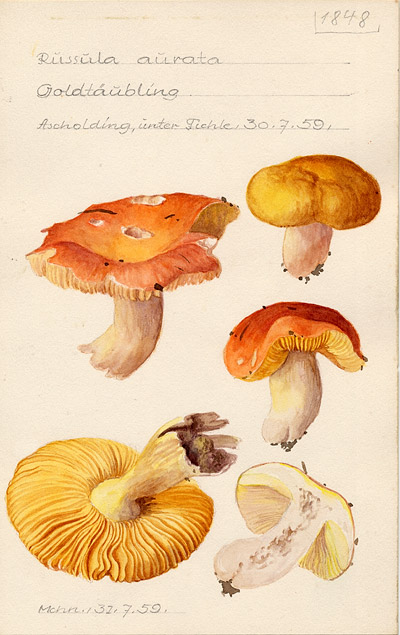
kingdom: Fungi
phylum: Basidiomycota
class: Agaricomycetes
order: Russulales
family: Russulaceae
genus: Russula
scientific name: Russula aurea
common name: Gilded brittlegill
